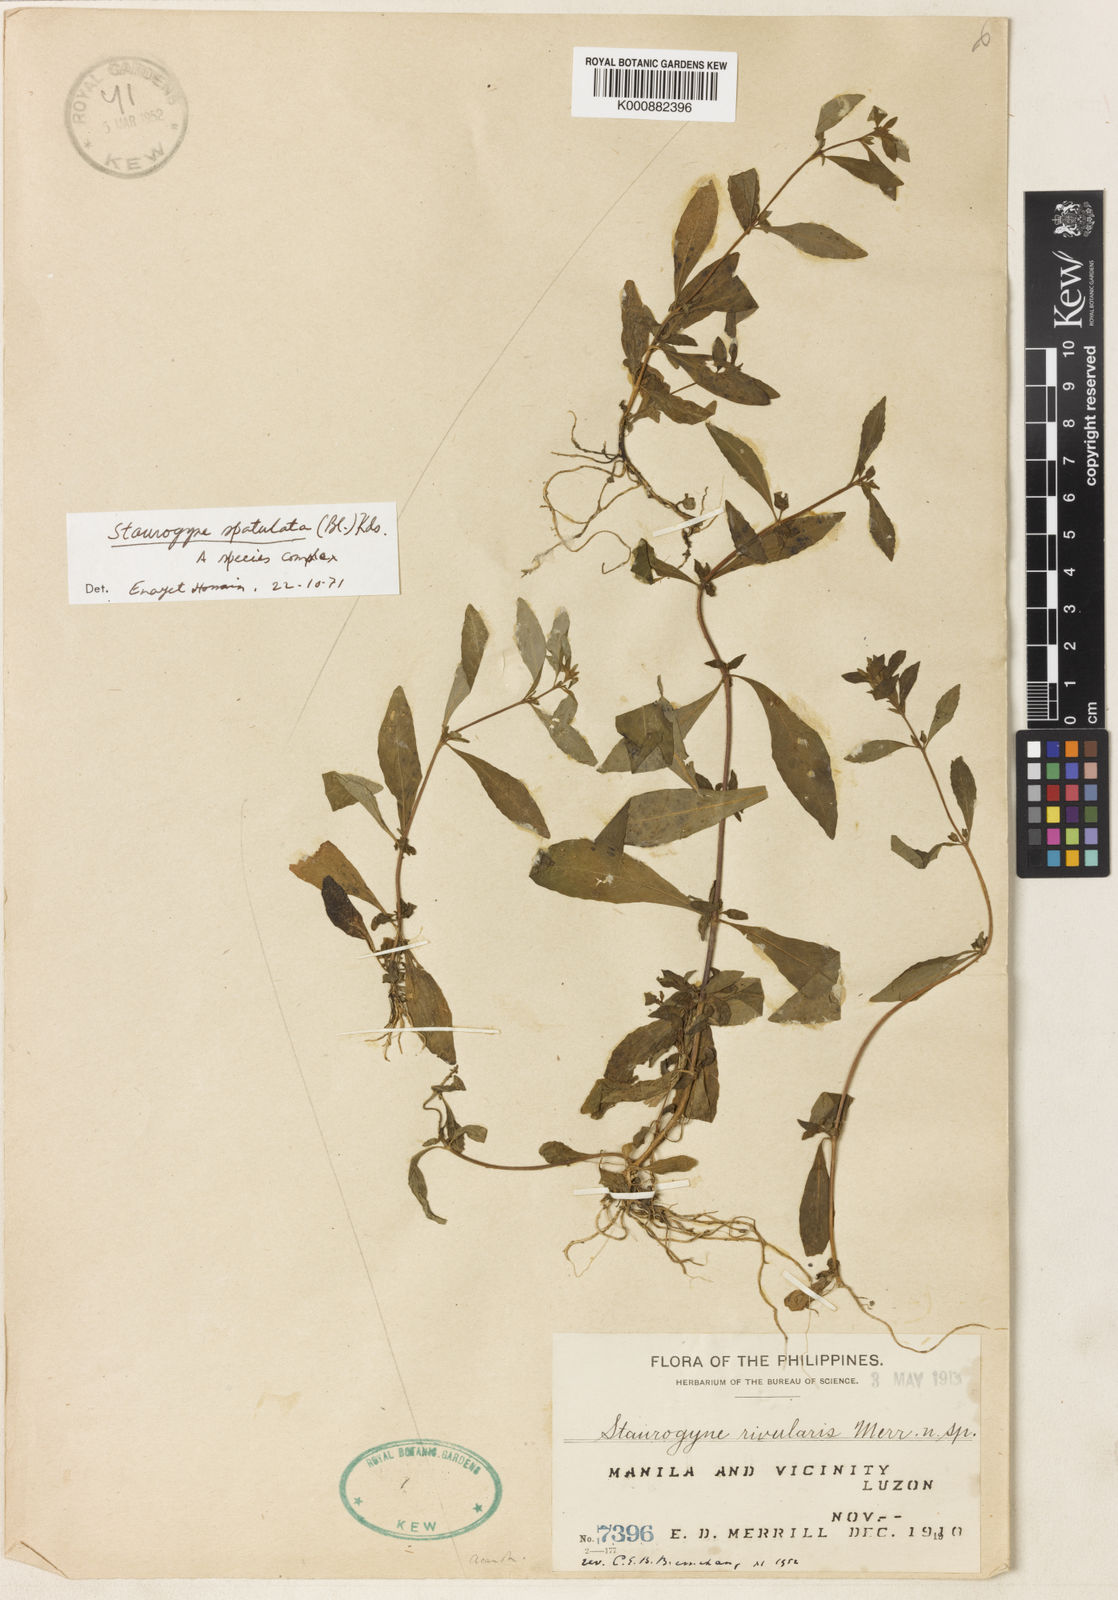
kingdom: Plantae
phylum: Tracheophyta
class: Magnoliopsida
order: Lamiales
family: Acanthaceae
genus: Staurogyne
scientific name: Staurogyne
